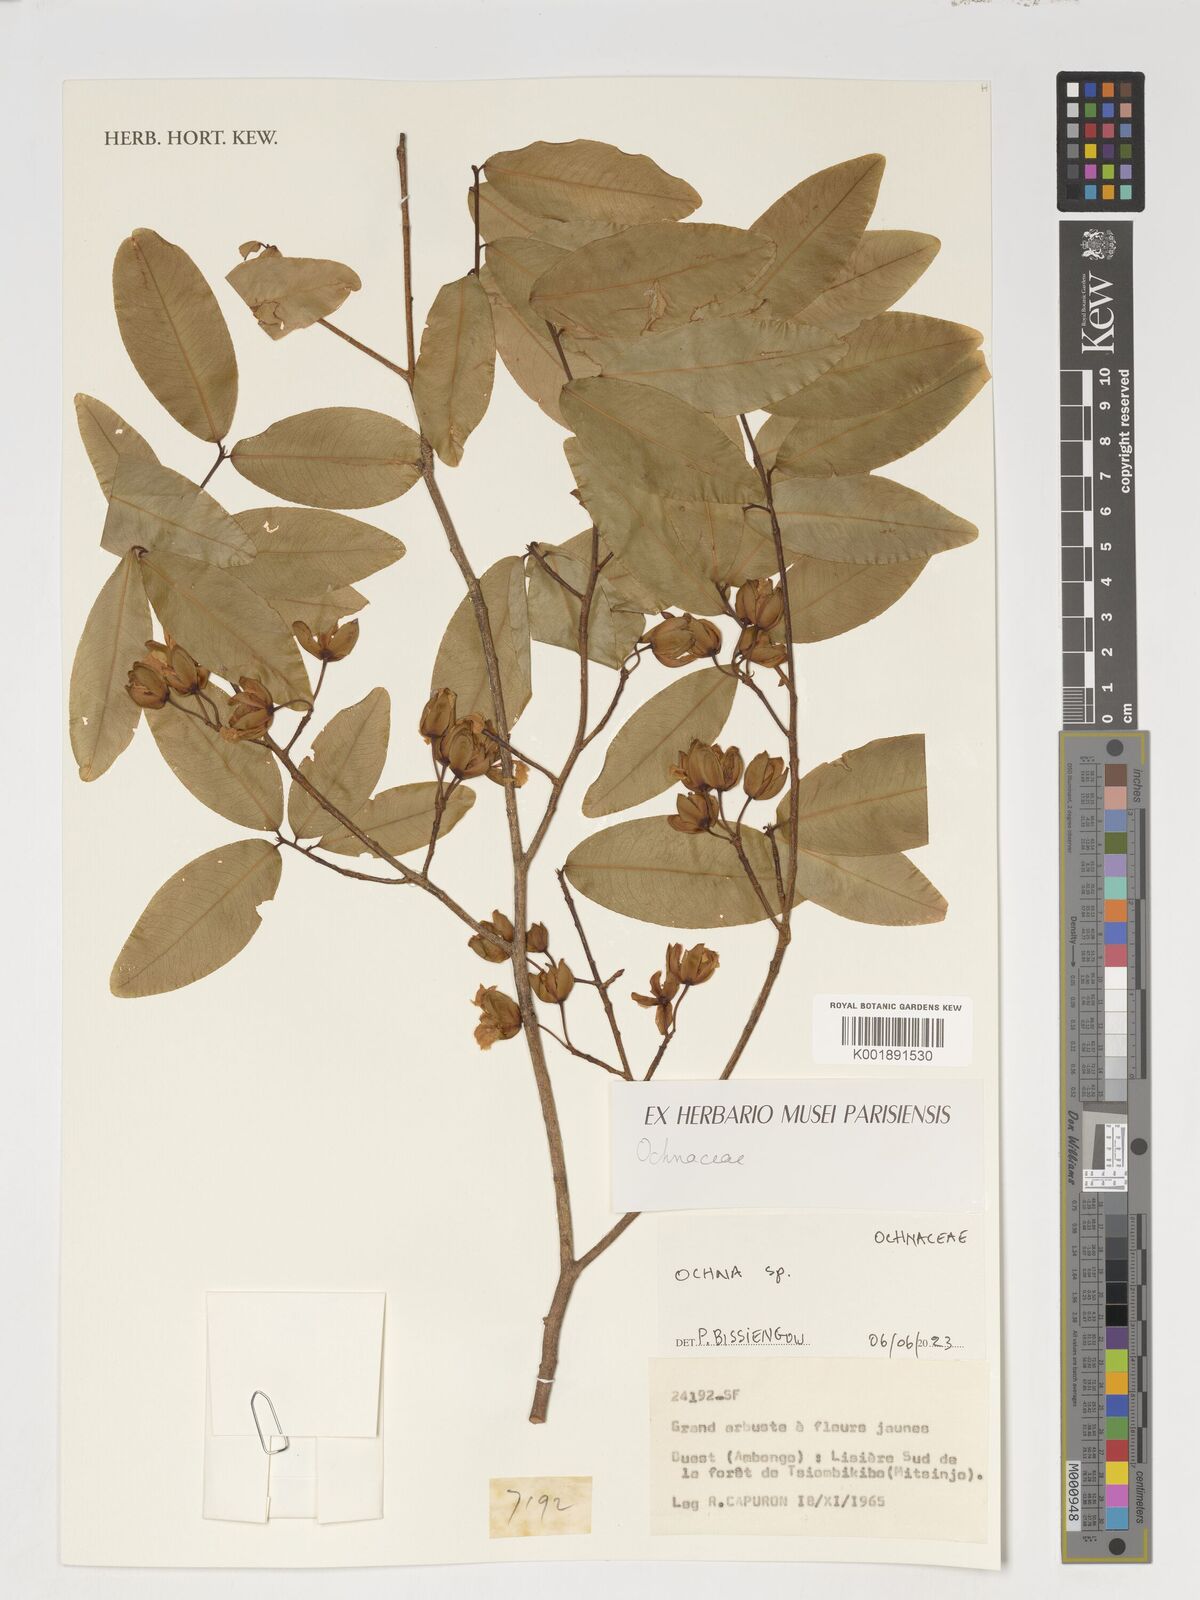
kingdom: Plantae
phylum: Tracheophyta
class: Magnoliopsida
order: Malpighiales
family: Ochnaceae
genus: Ochna
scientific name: Ochna
